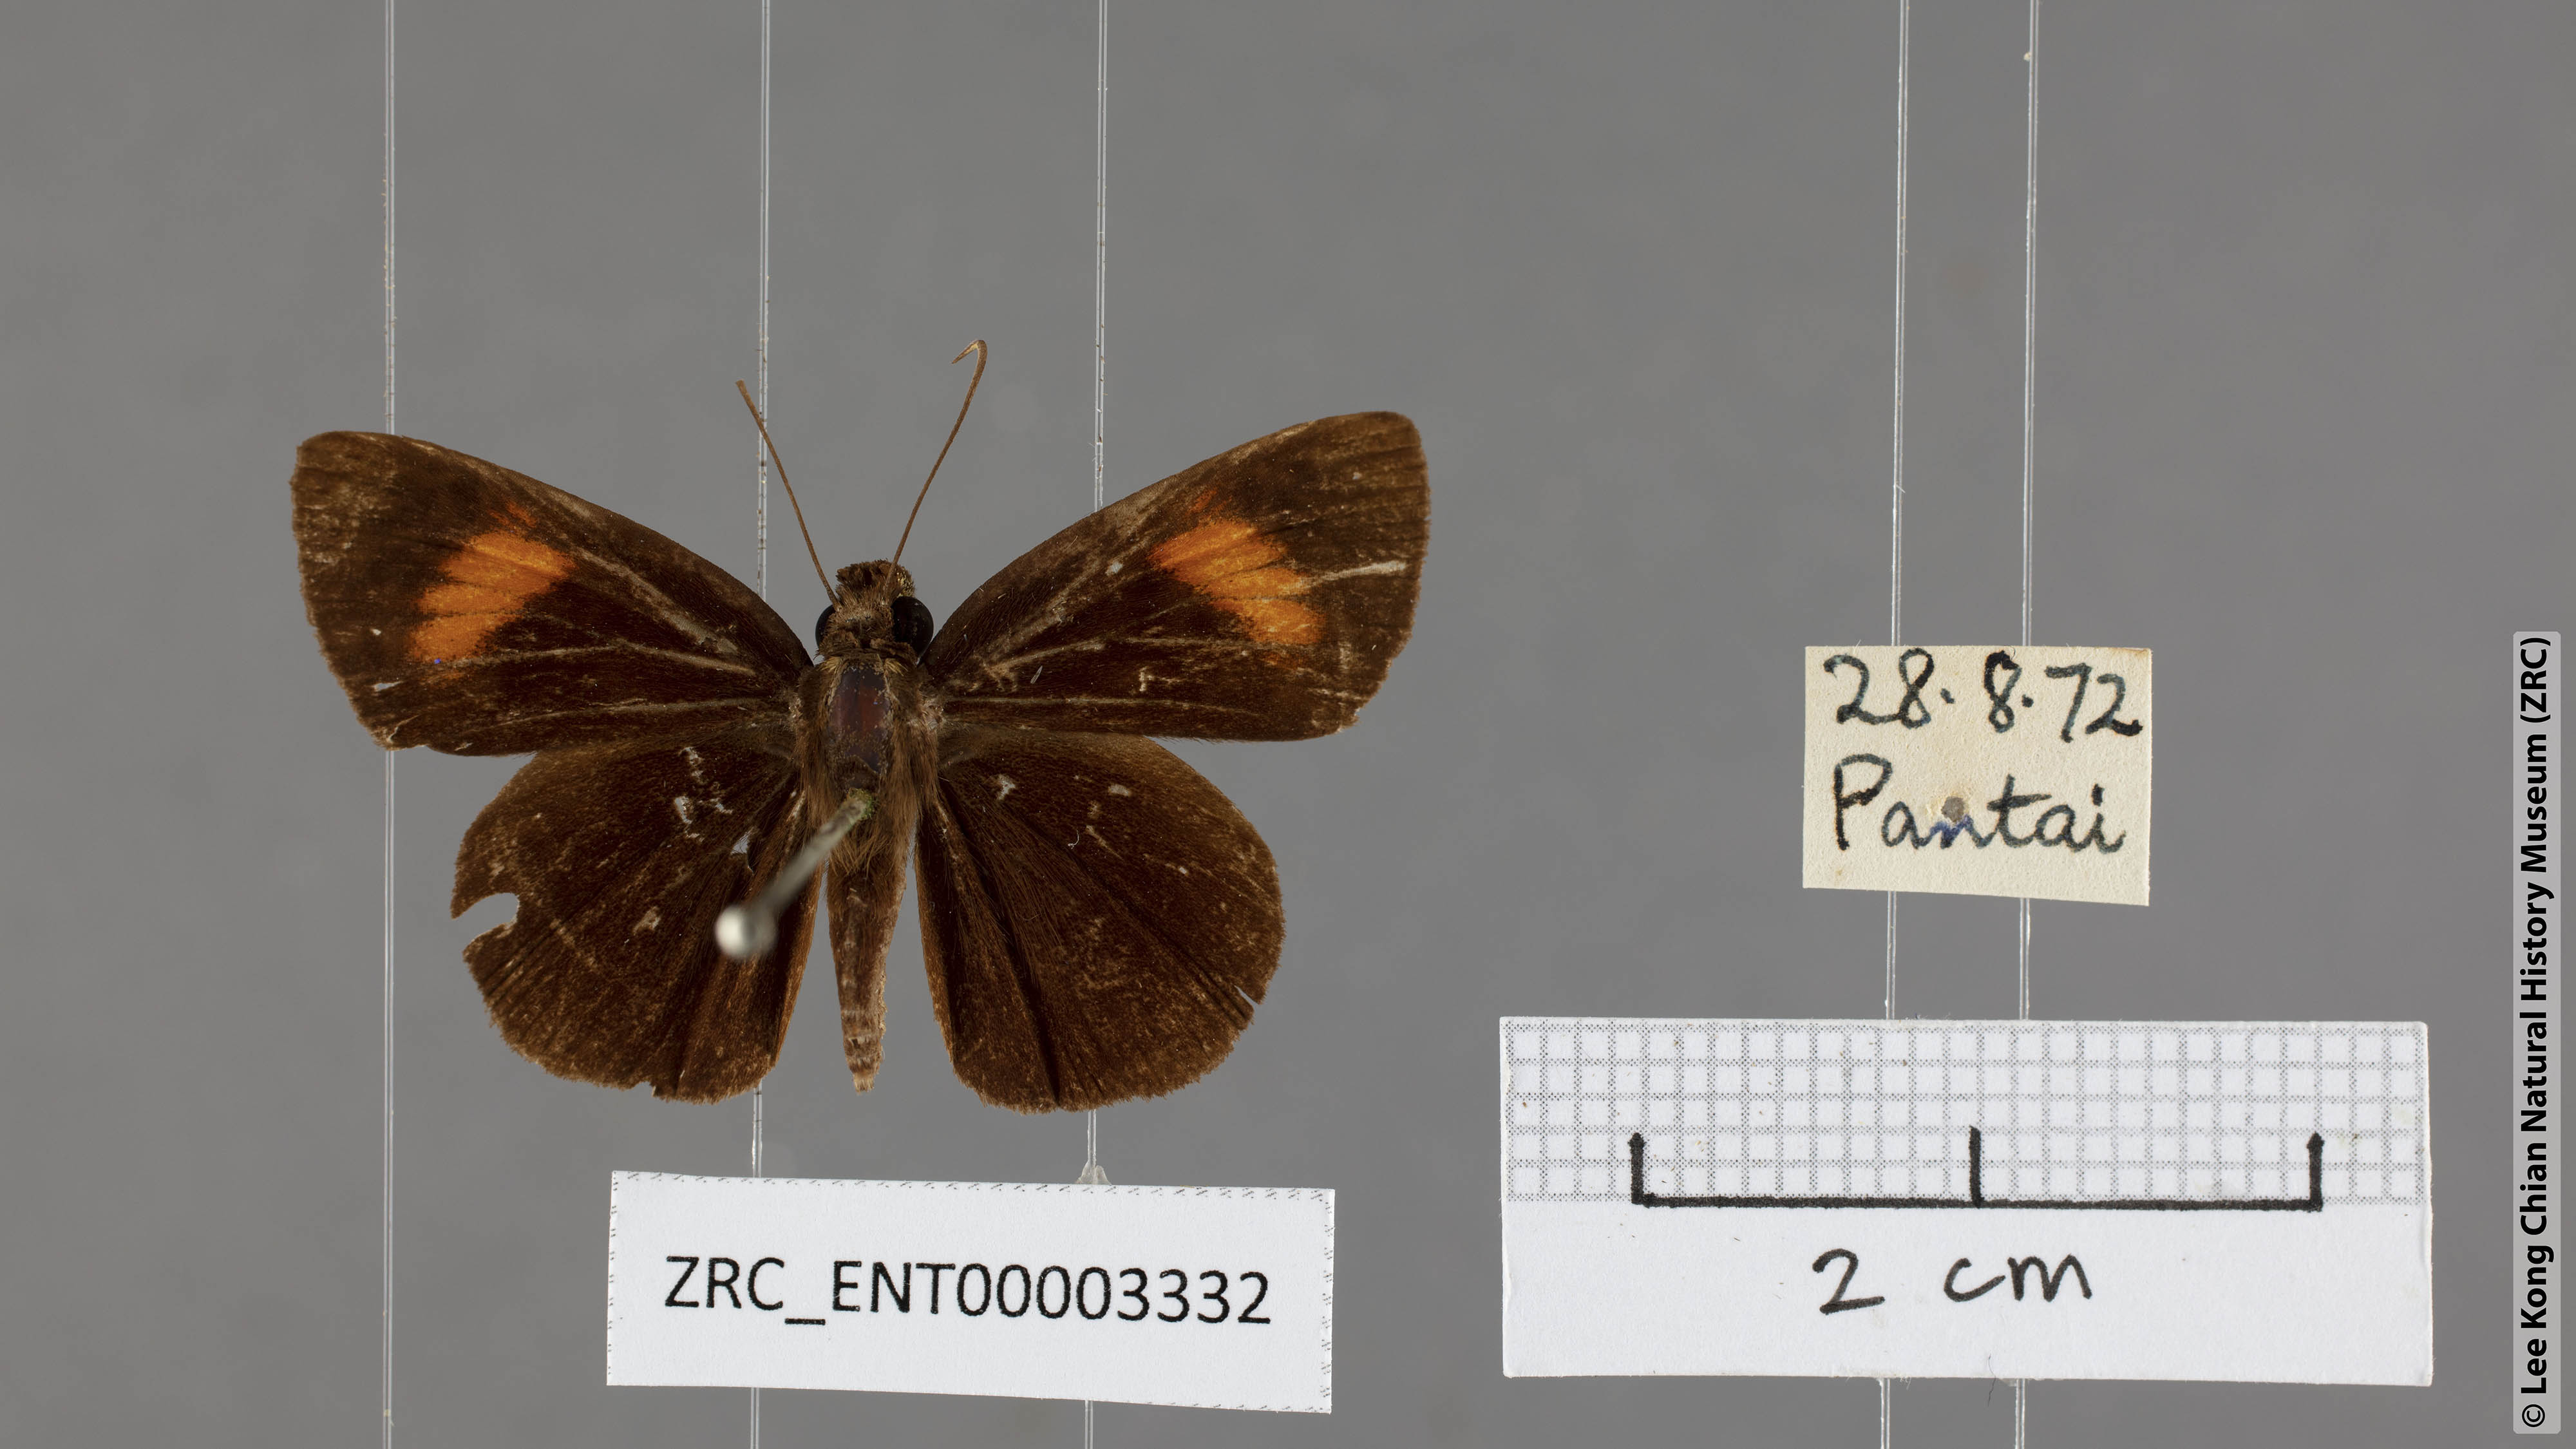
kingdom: Animalia
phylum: Arthropoda
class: Insecta
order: Lepidoptera
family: Hesperiidae
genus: Koruthaialos
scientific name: Koruthaialos rubecula
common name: Narrow-banded velvet bob
